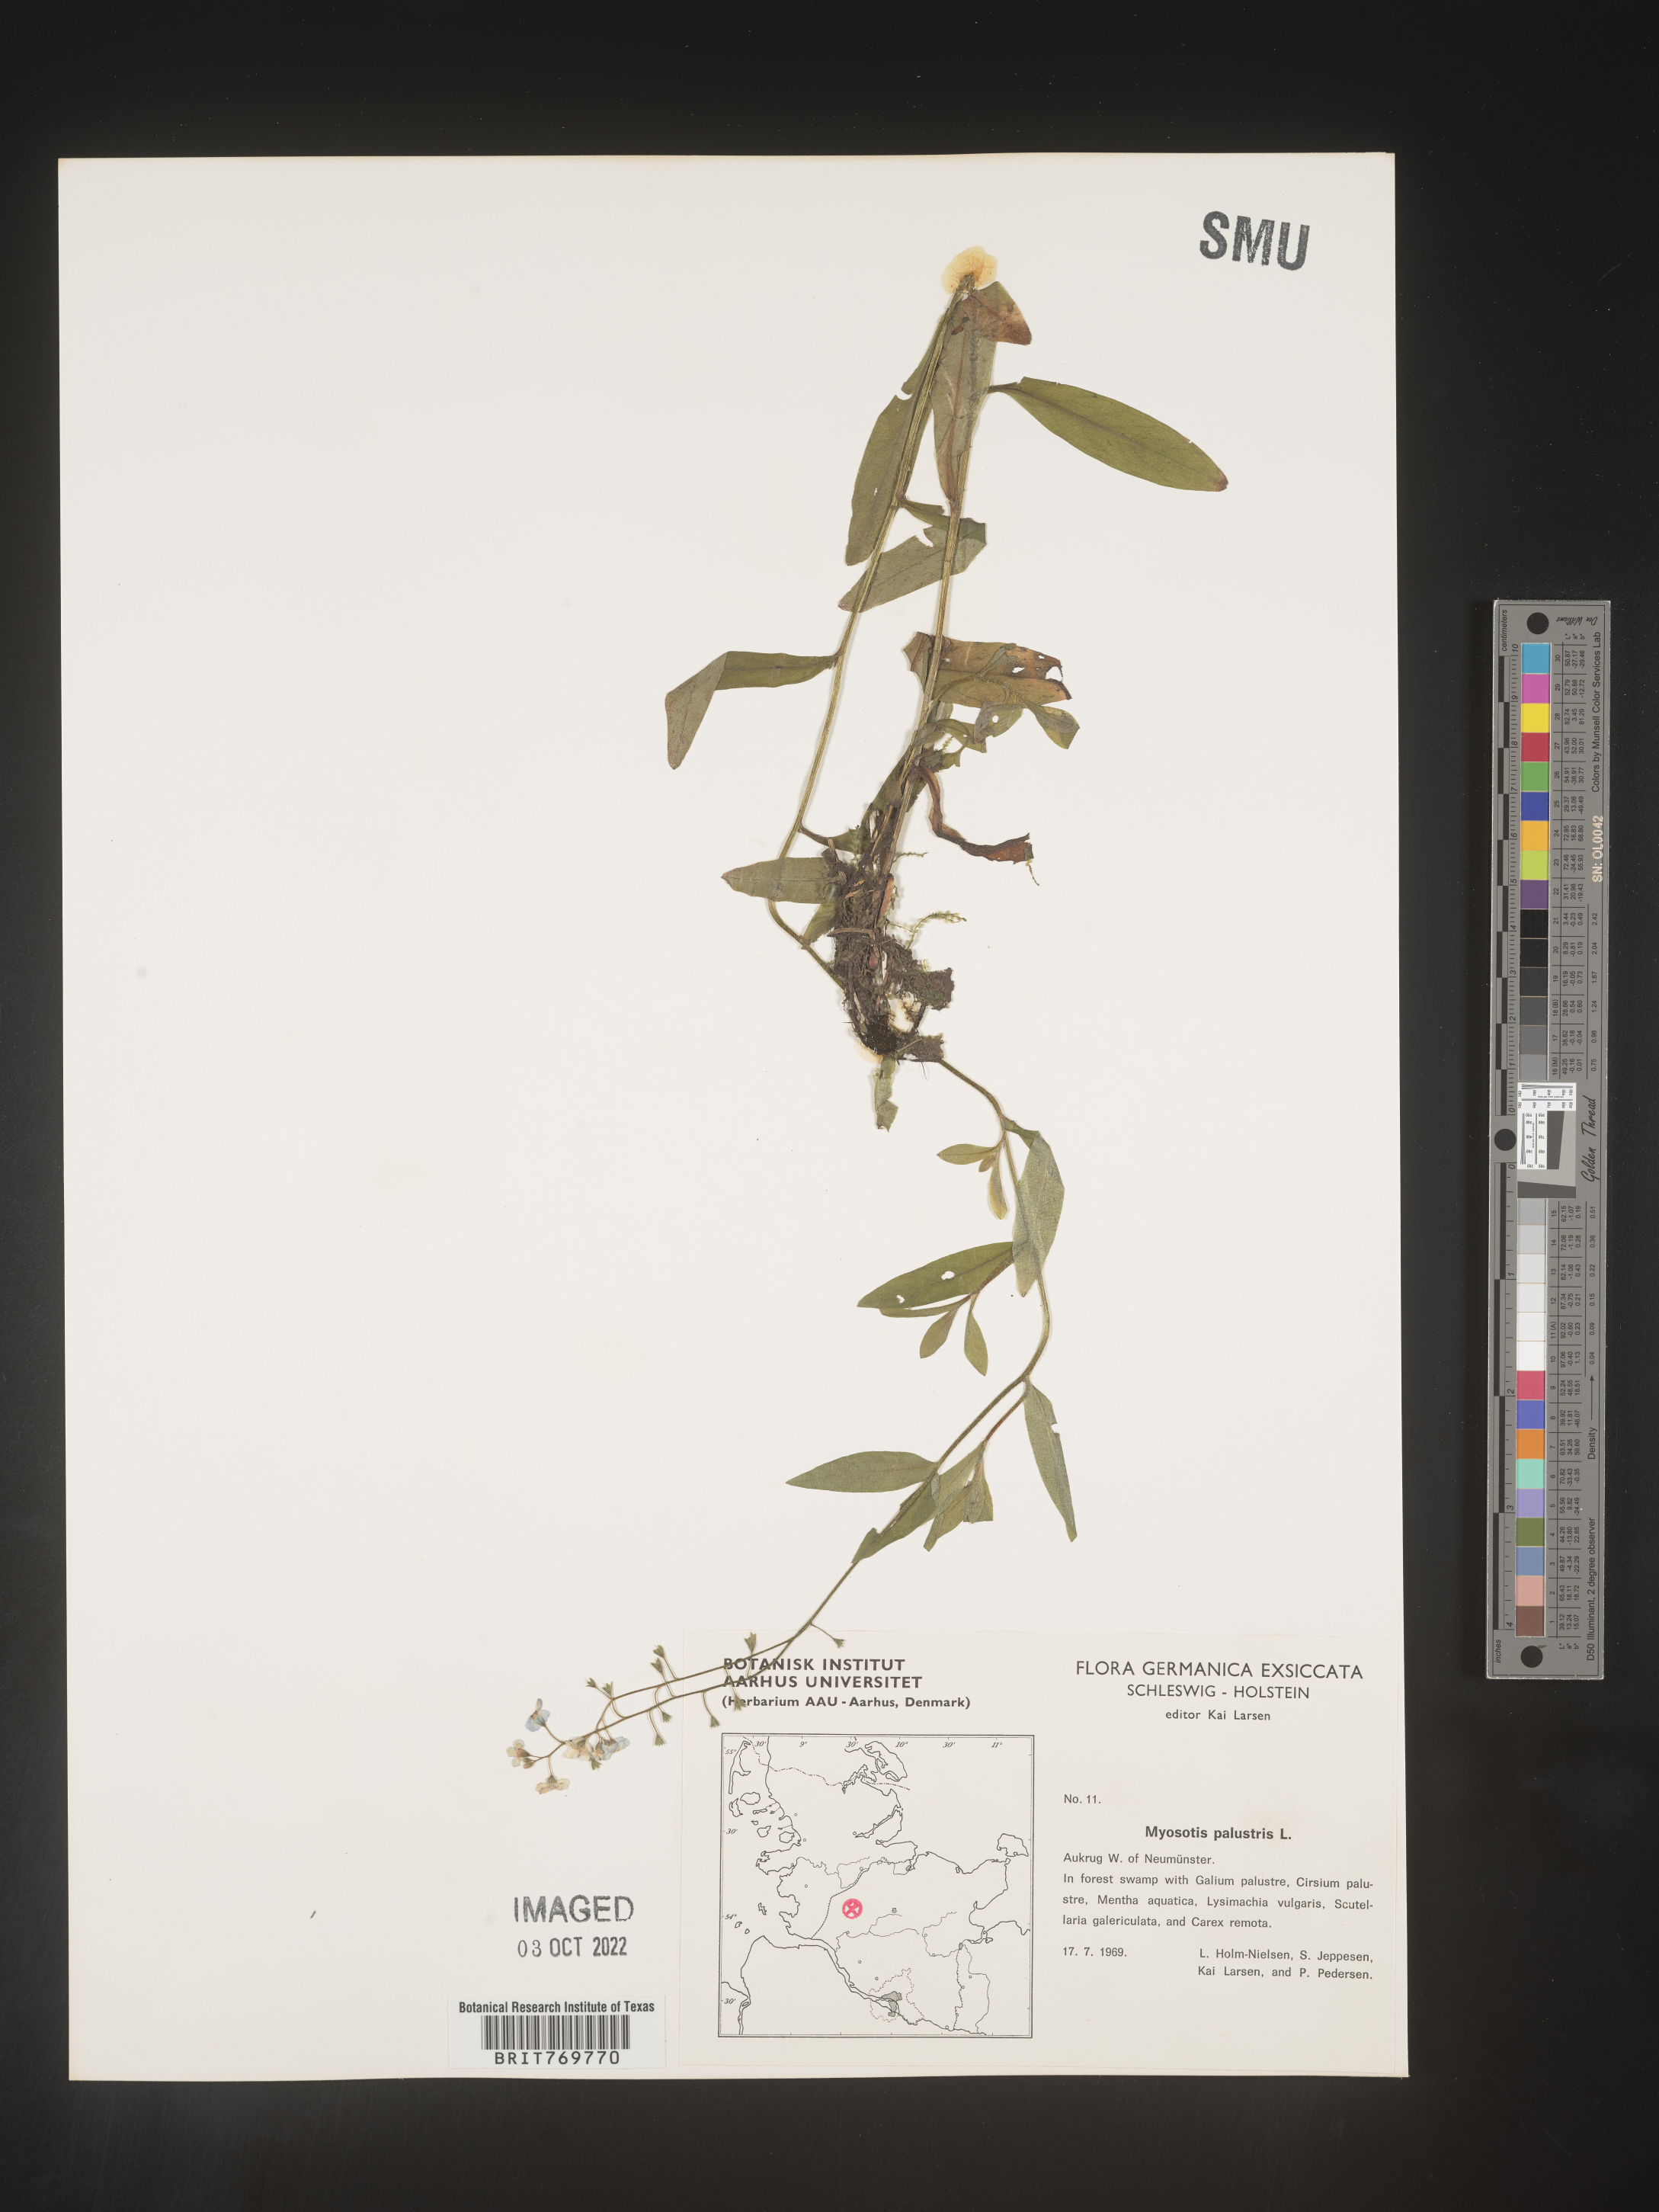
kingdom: Plantae
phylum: Tracheophyta
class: Magnoliopsida
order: Boraginales
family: Boraginaceae
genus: Myosotis
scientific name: Myosotis
